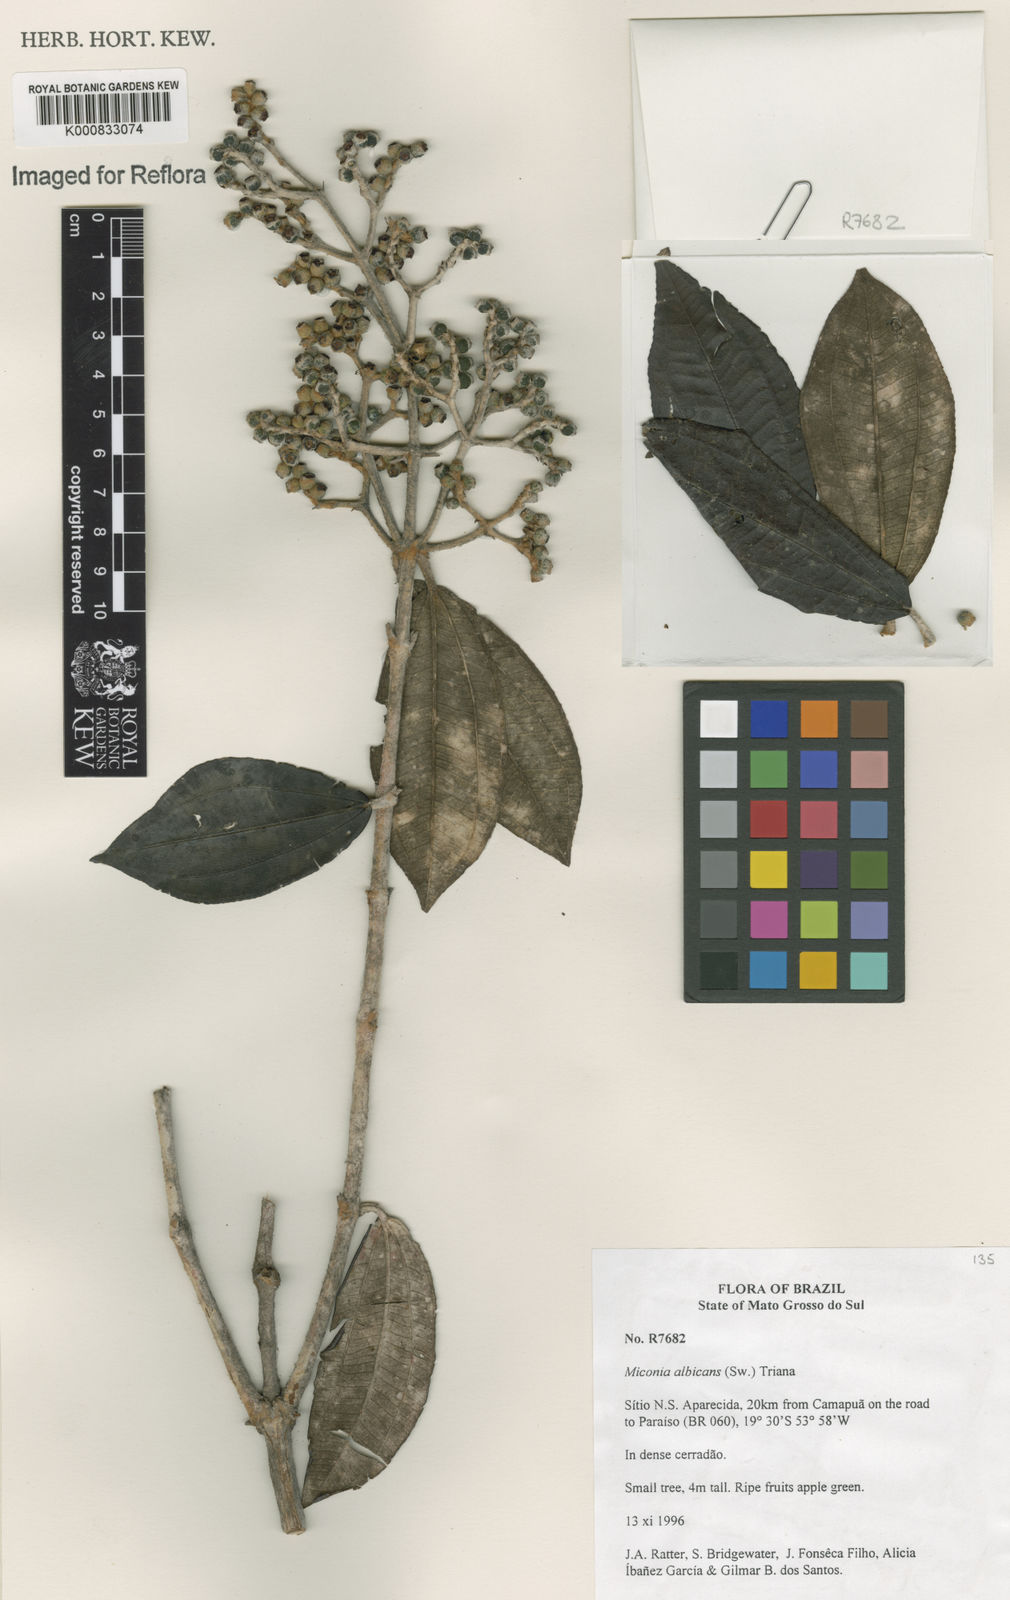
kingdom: Plantae
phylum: Tracheophyta
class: Magnoliopsida
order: Myrtales
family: Melastomataceae
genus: Miconia
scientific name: Miconia albicans
